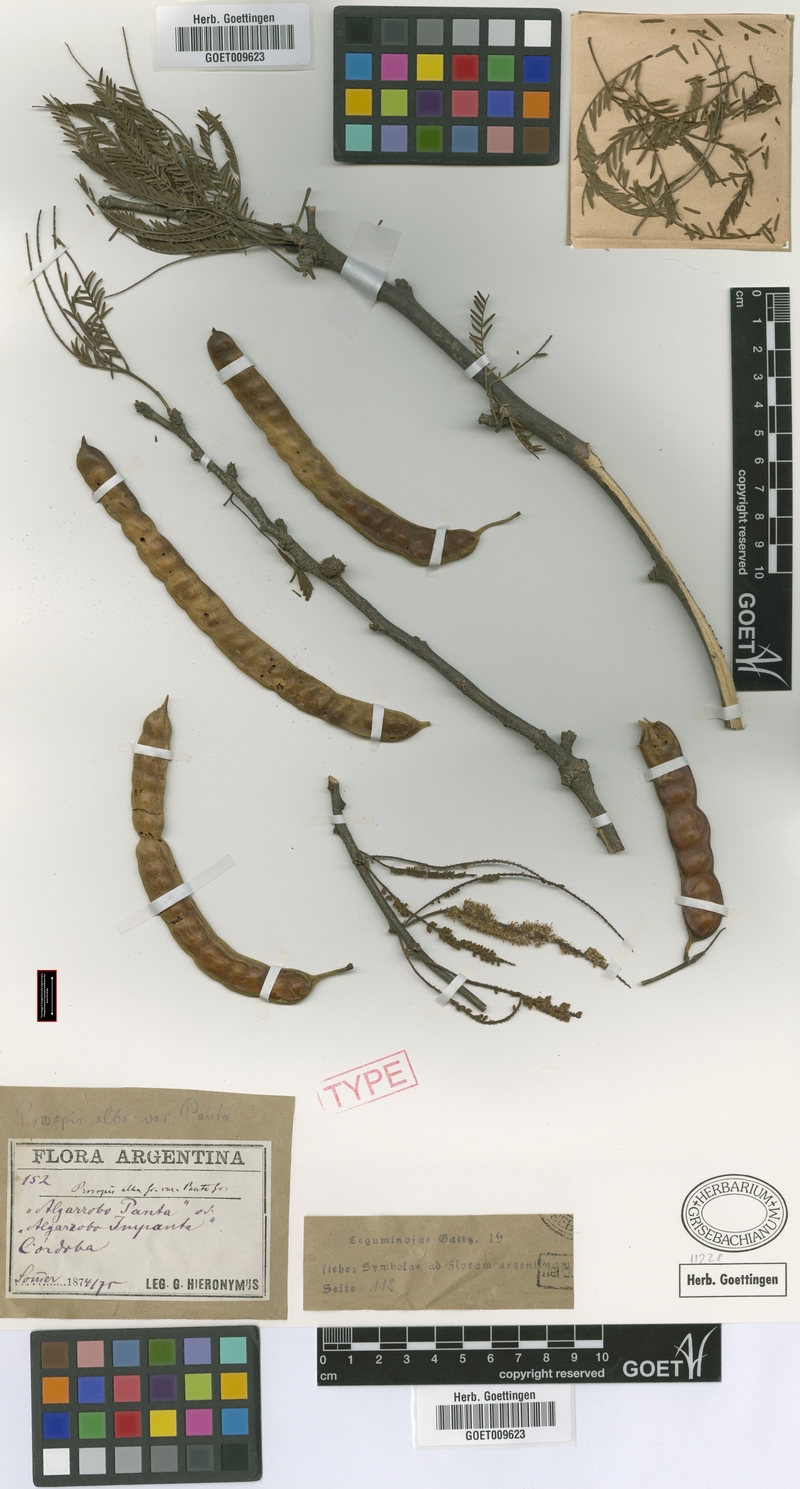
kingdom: Plantae
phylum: Tracheophyta
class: Magnoliopsida
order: Fabales
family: Fabaceae
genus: Prosopis
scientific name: Prosopis alba
